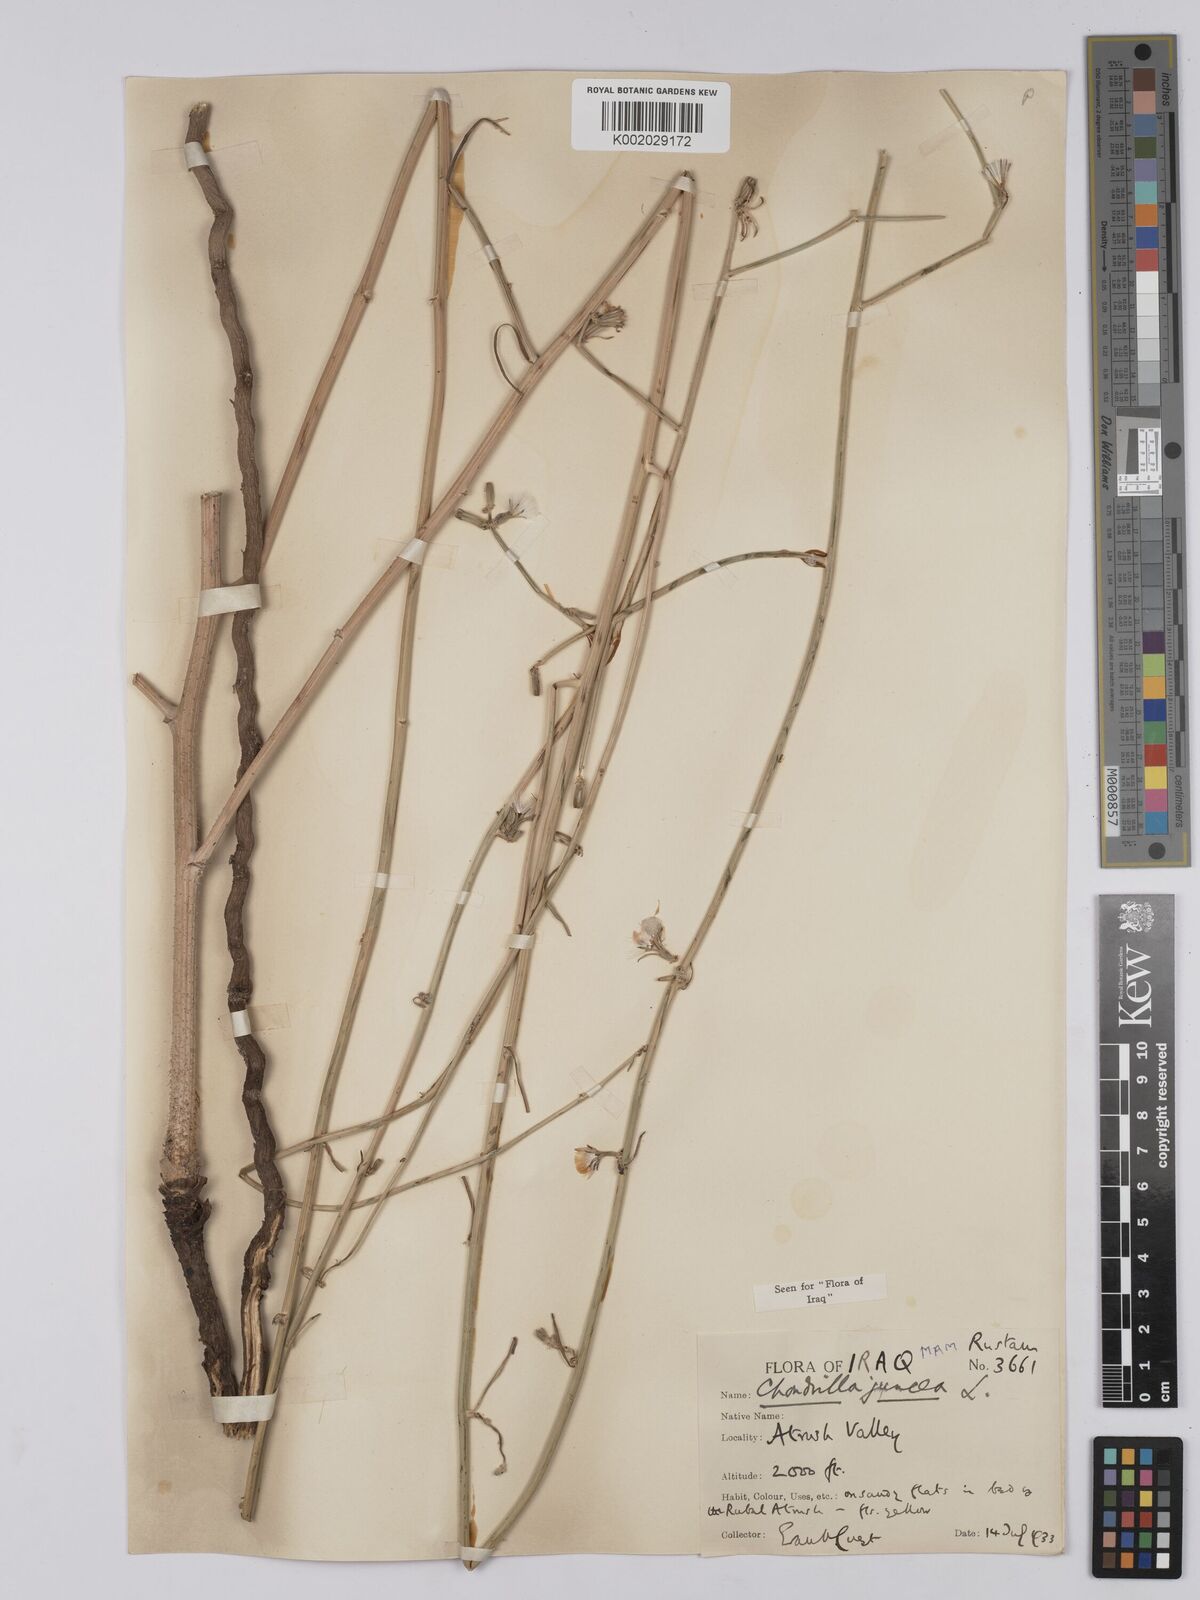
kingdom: Plantae
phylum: Tracheophyta
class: Magnoliopsida
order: Asterales
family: Asteraceae
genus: Chondrilla
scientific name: Chondrilla juncea
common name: Skeleton weed
